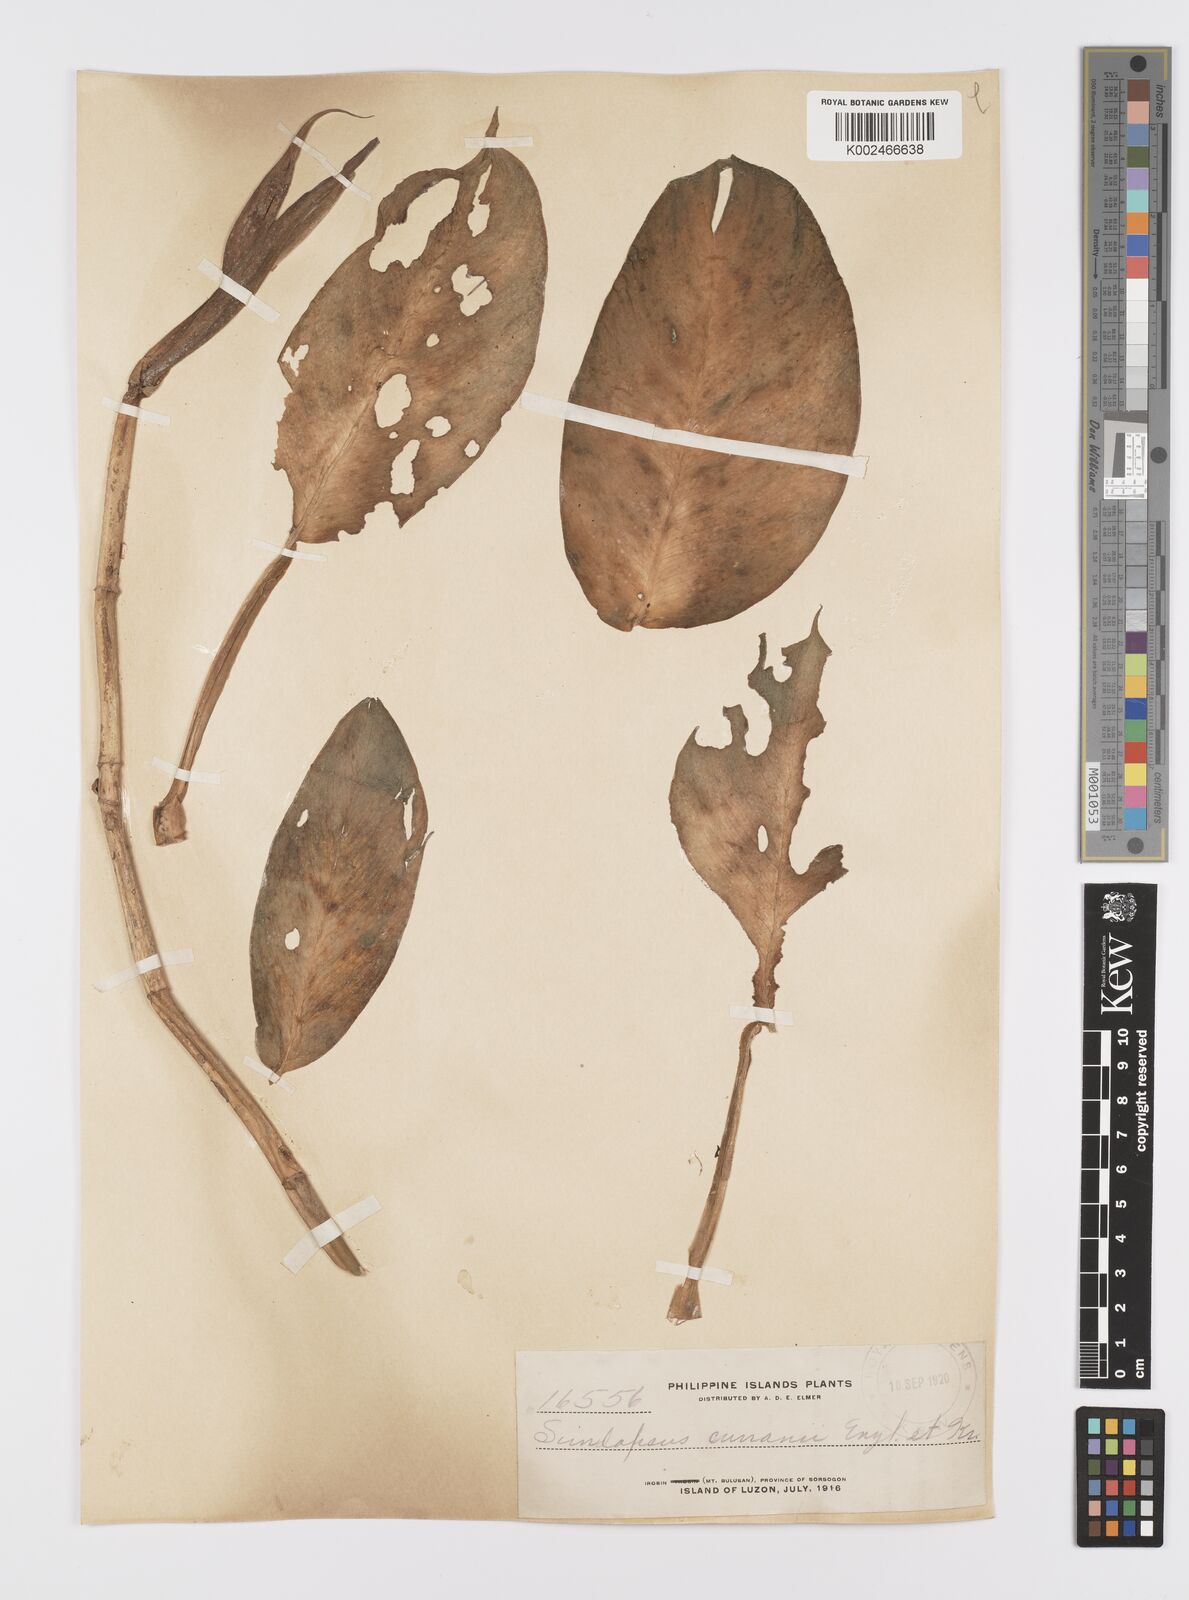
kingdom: Plantae
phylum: Tracheophyta
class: Liliopsida
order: Alismatales
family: Araceae
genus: Scindapsus
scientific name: Scindapsus curranii
